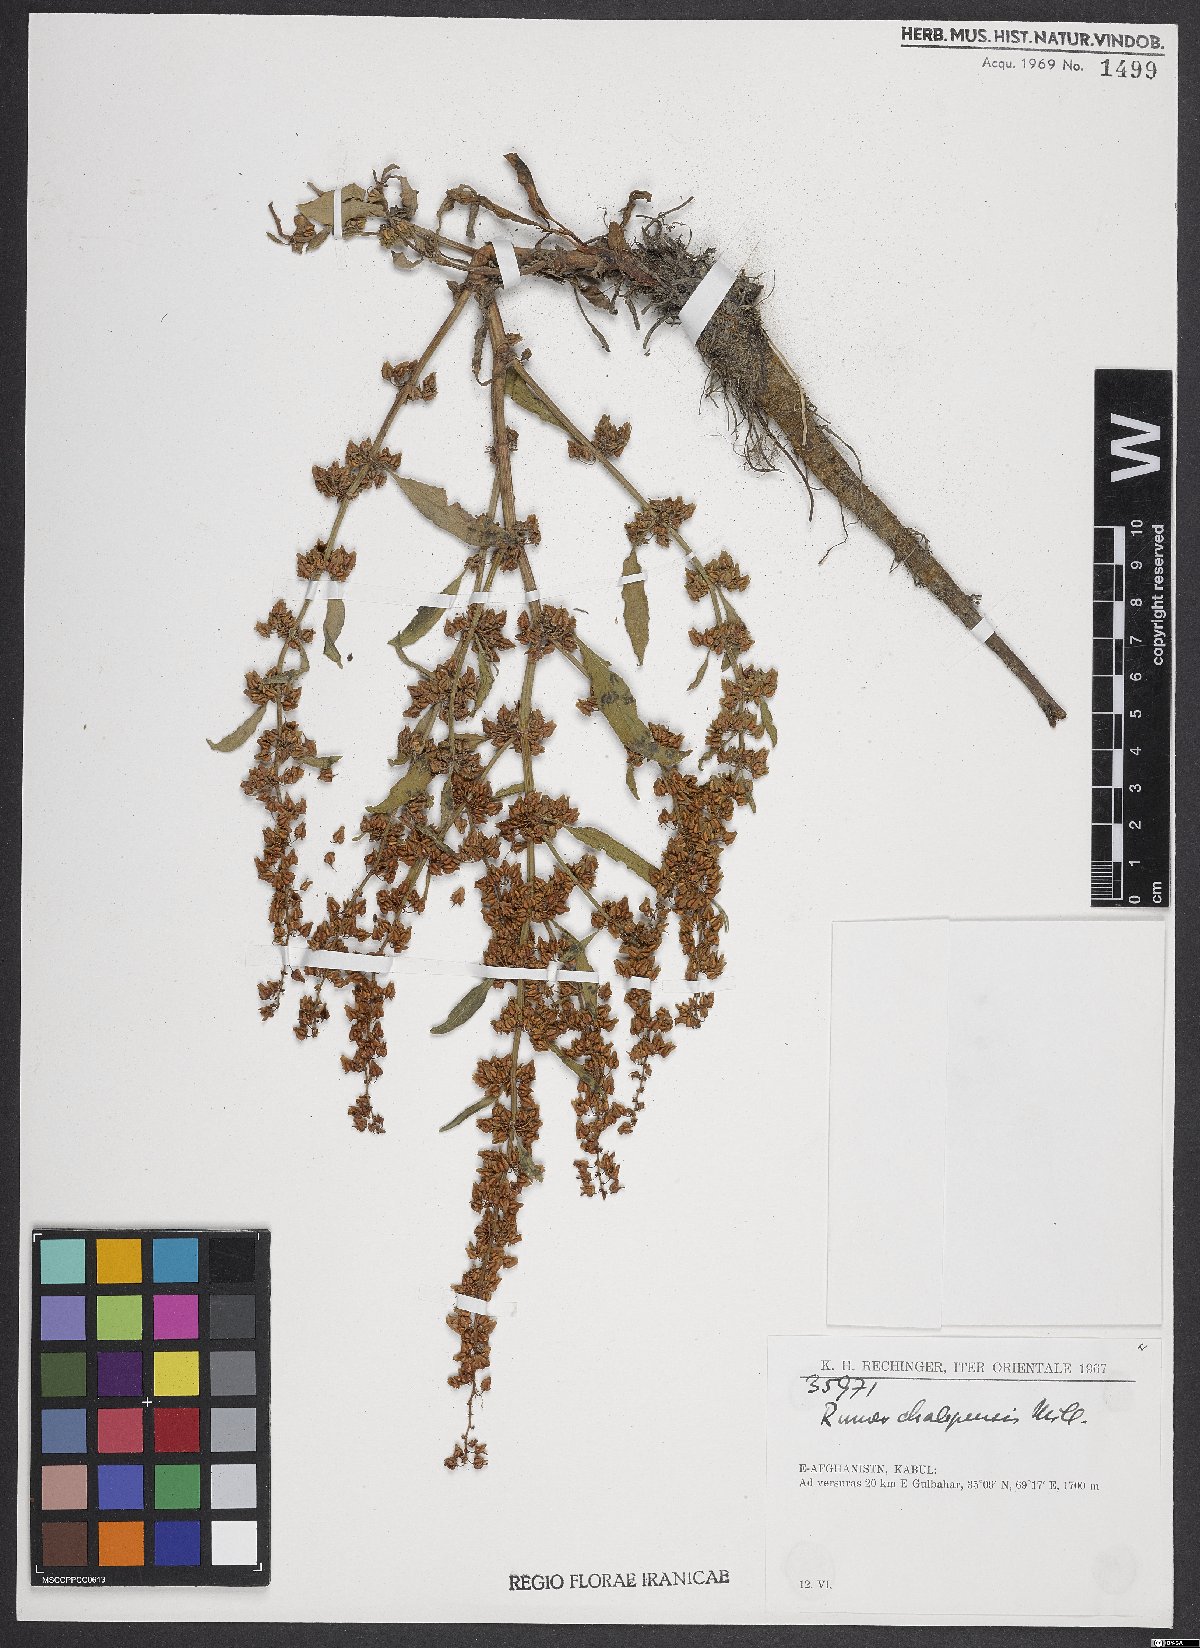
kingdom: Plantae
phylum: Tracheophyta
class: Magnoliopsida
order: Caryophyllales
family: Polygonaceae
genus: Rumex
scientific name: Rumex chalepensis
